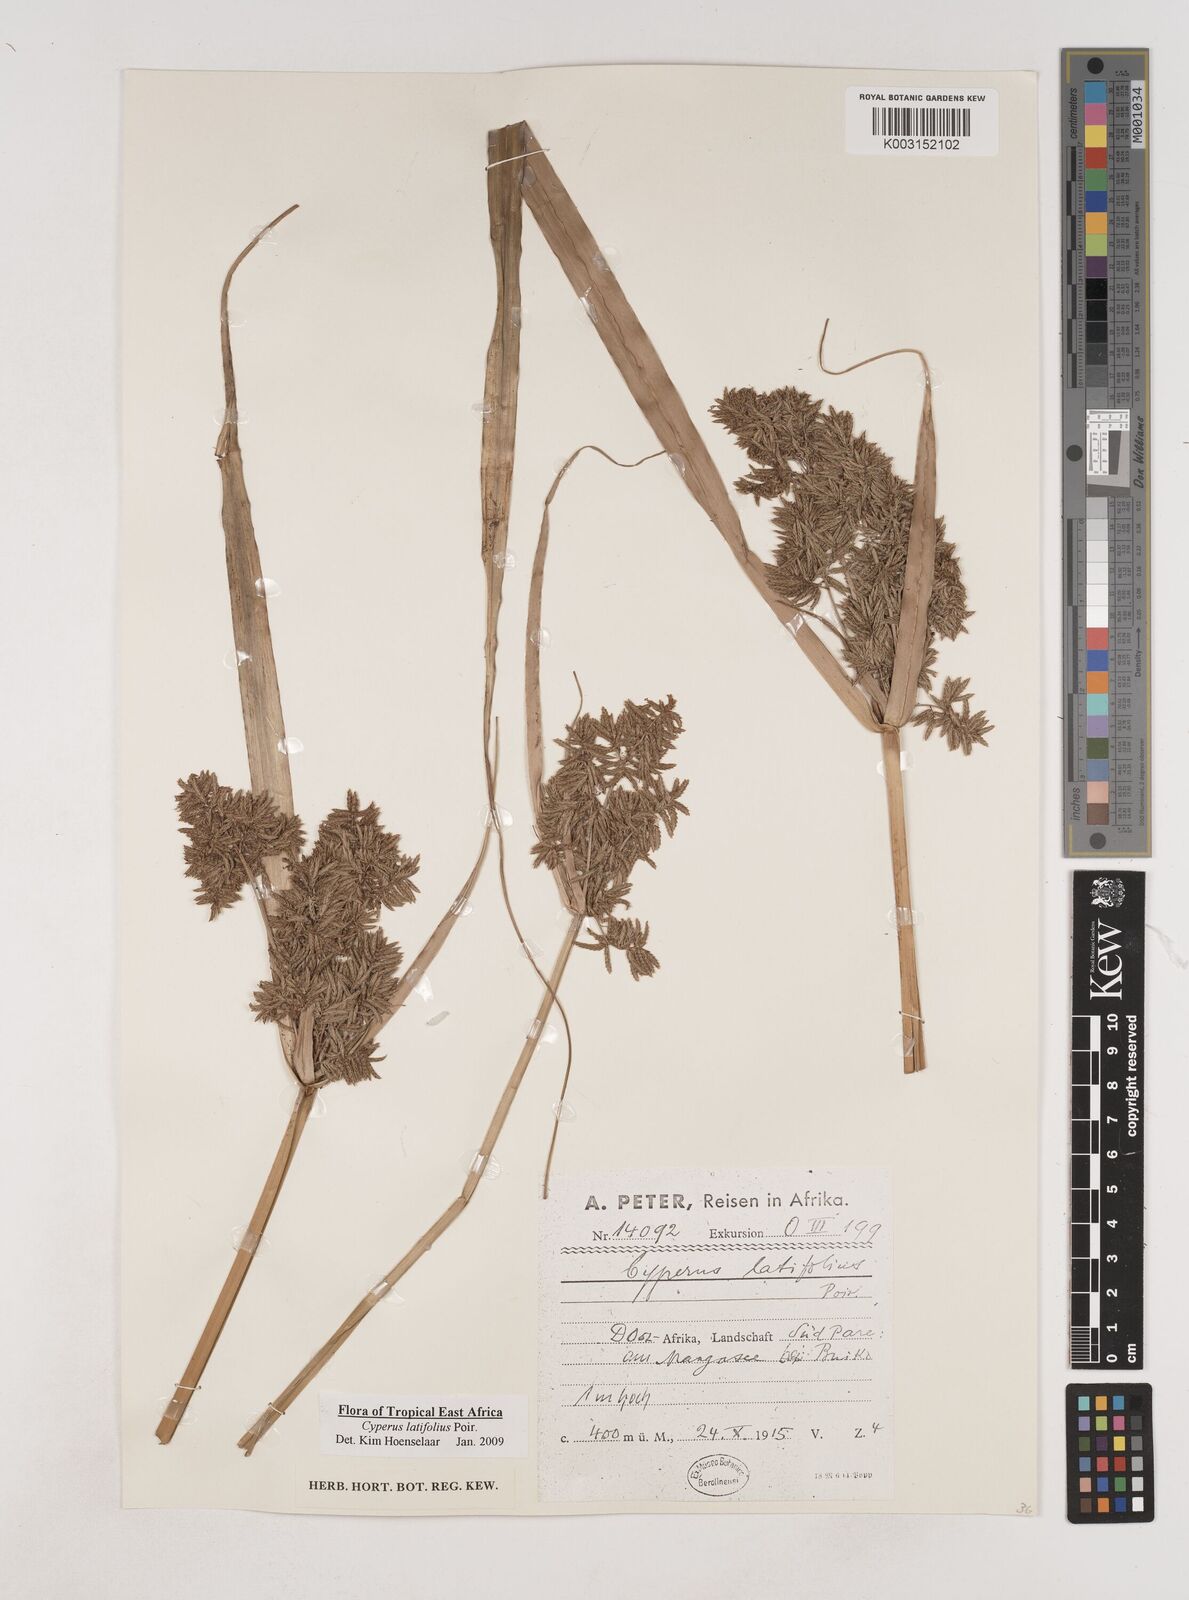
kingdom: Plantae
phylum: Tracheophyta
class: Liliopsida
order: Poales
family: Cyperaceae
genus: Cyperus
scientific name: Cyperus latifolius
